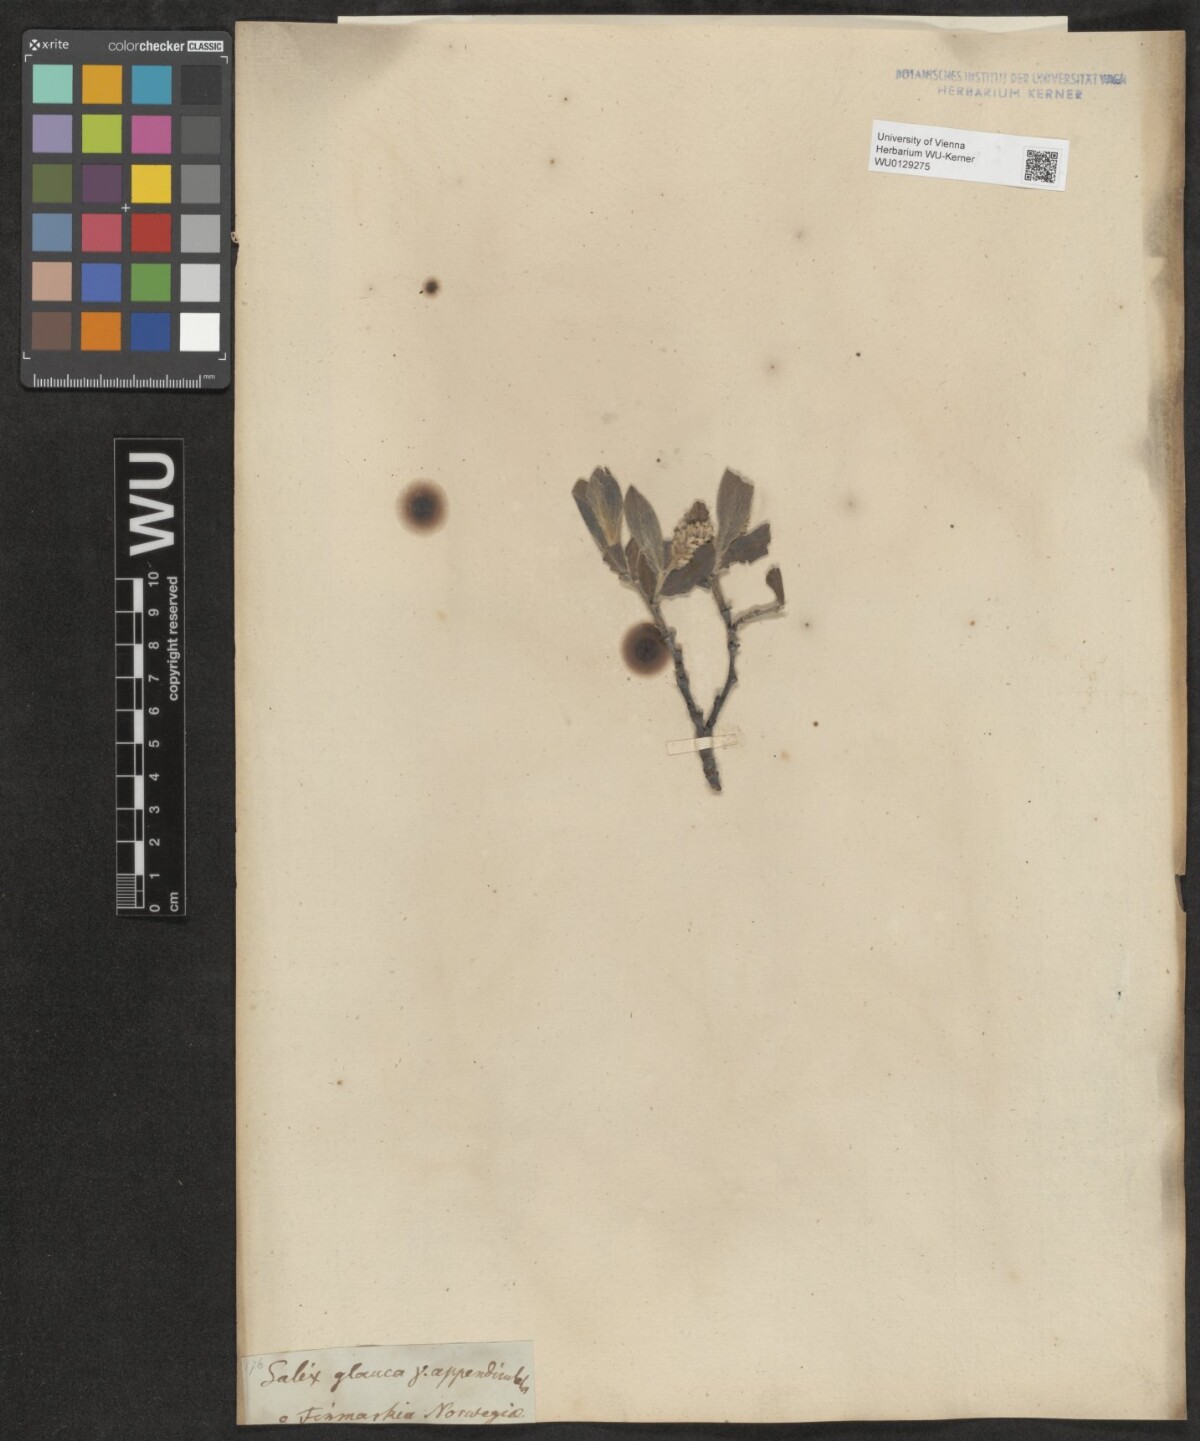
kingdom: Plantae
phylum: Tracheophyta
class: Magnoliopsida
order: Malpighiales
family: Salicaceae
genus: Salix
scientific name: Salix glauca
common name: Glaucous willow
